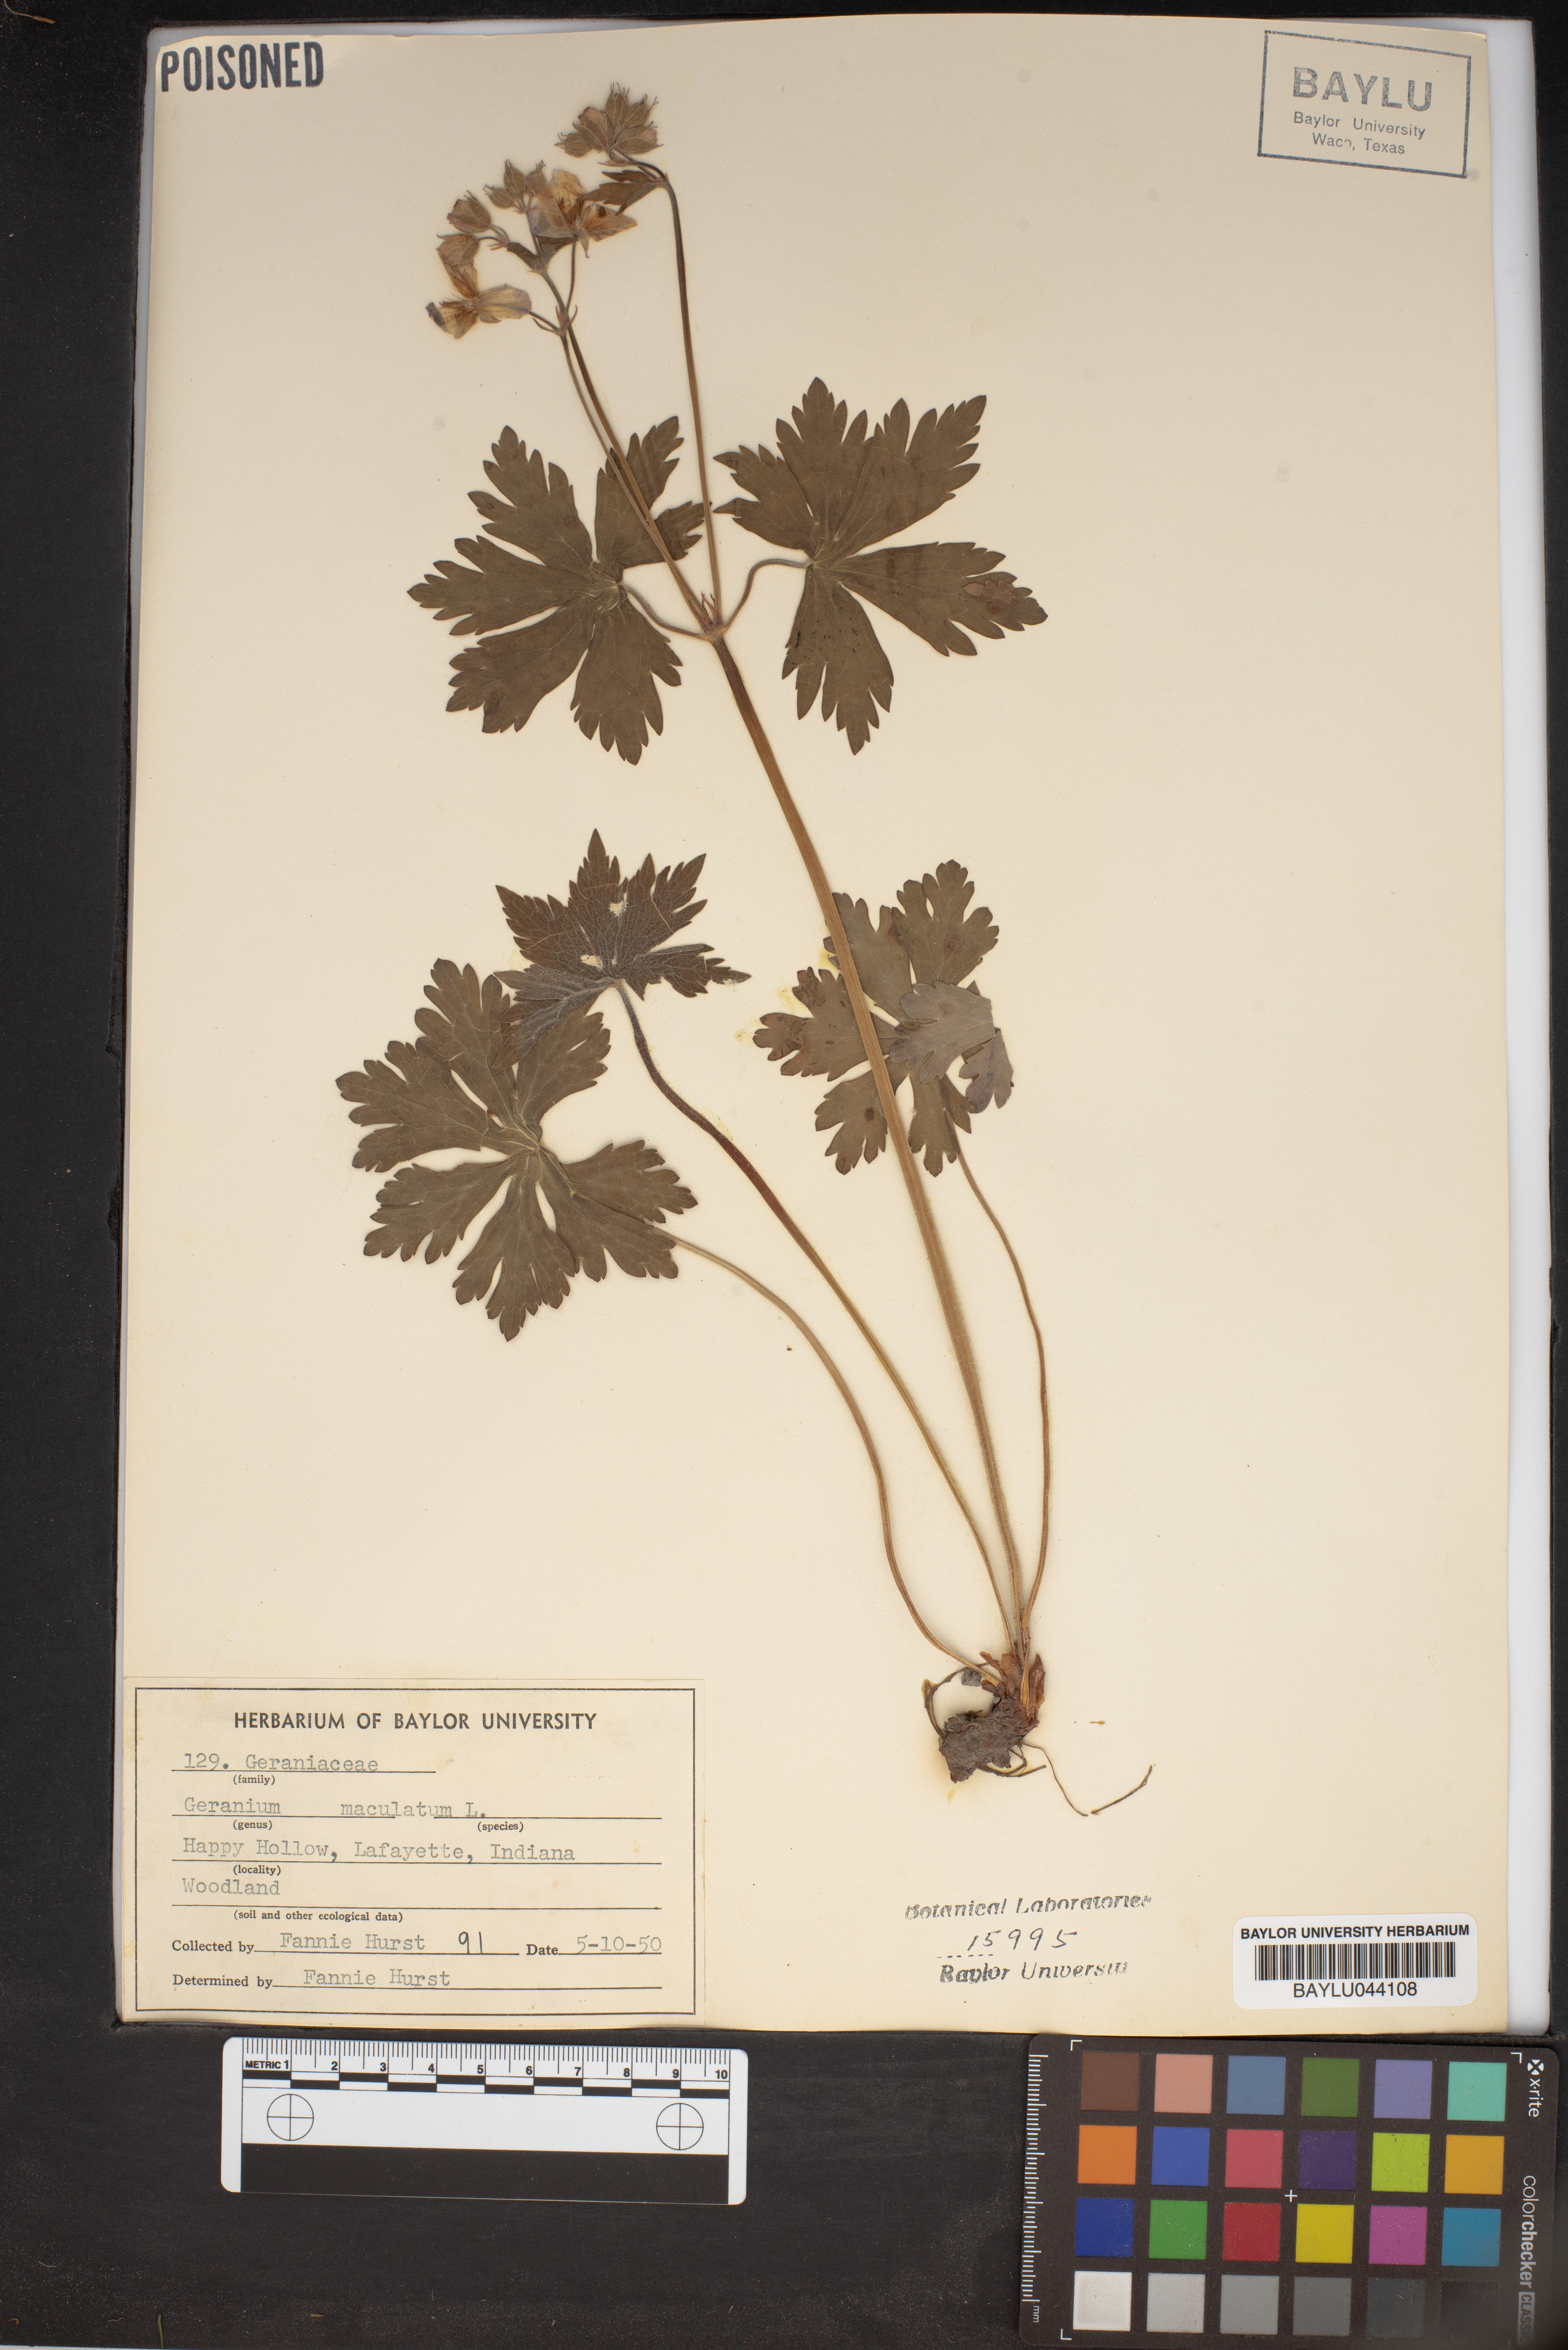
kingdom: Plantae
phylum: Tracheophyta
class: Magnoliopsida
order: Geraniales
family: Geraniaceae
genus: Geranium
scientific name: Geranium maculatum
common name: Spotted geranium
